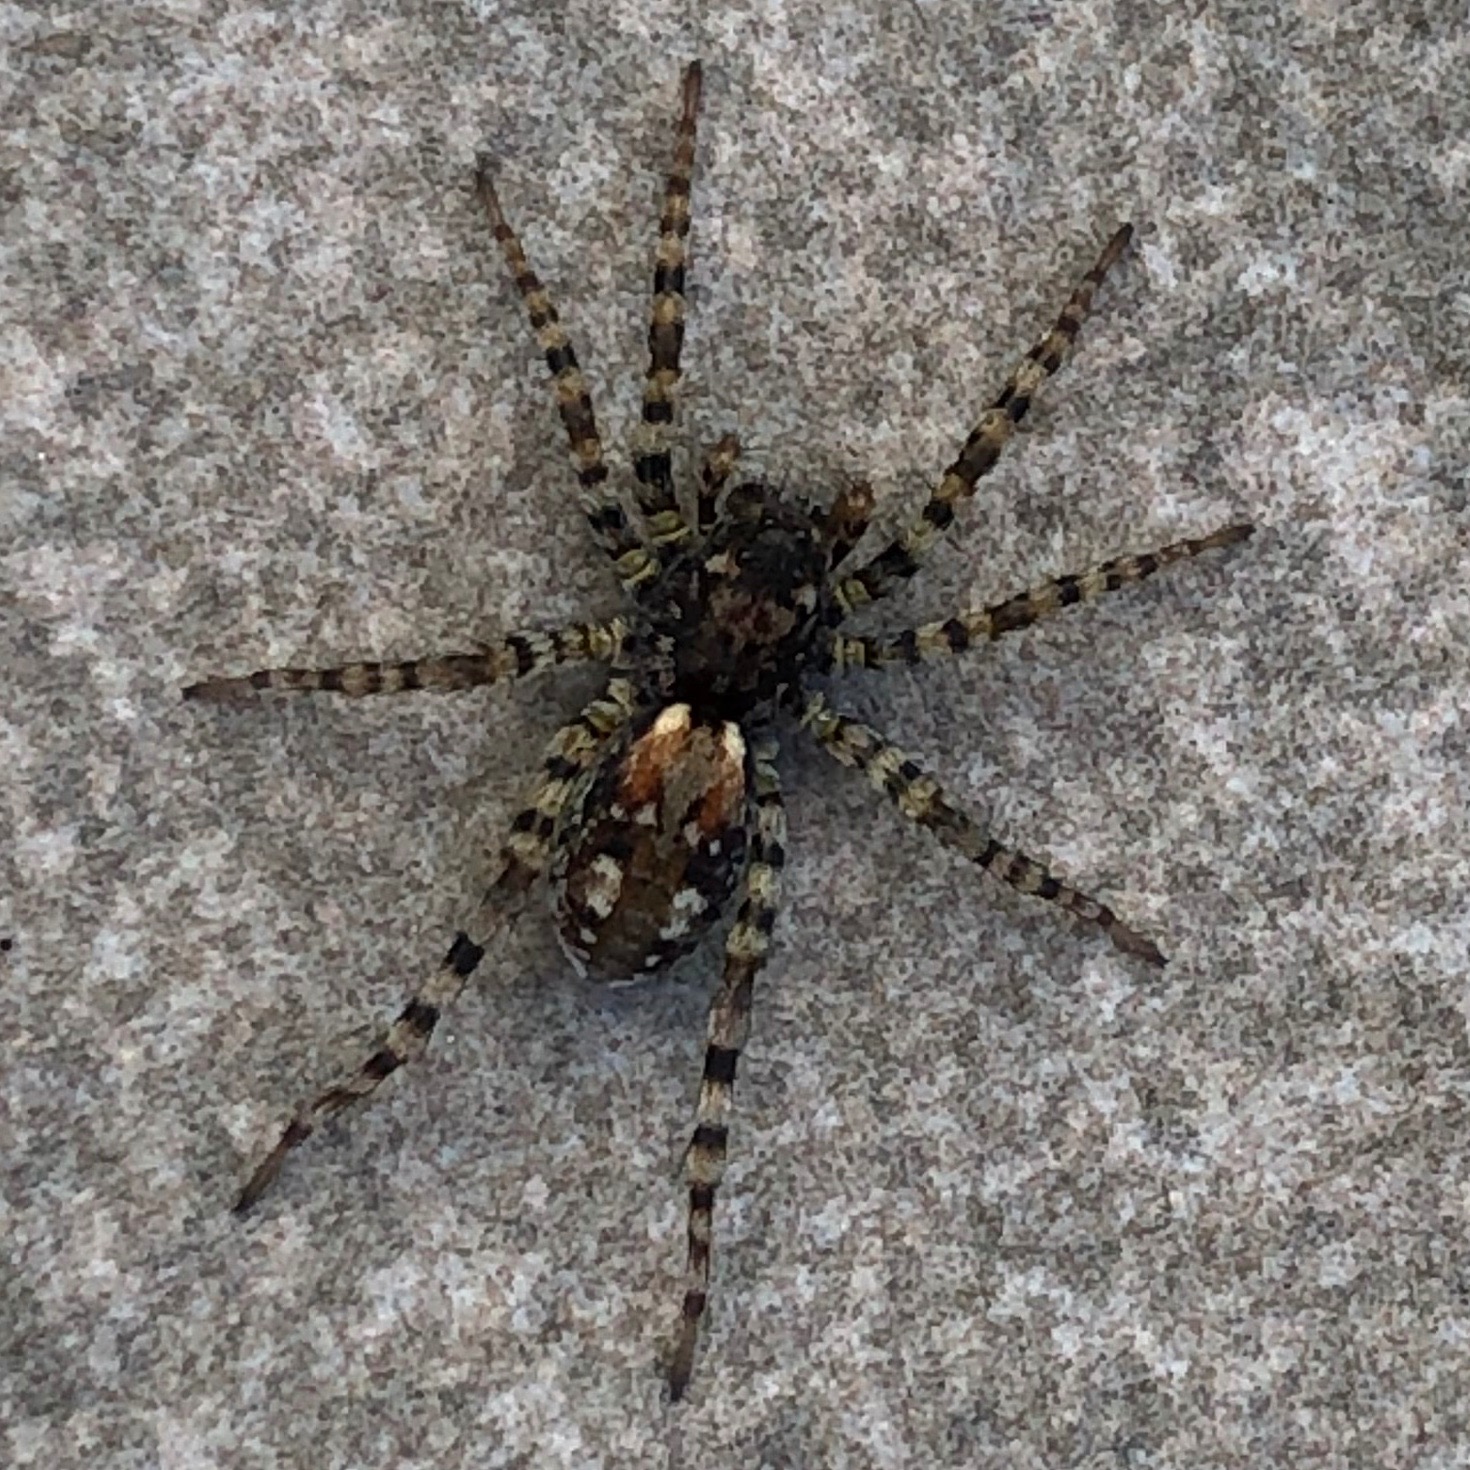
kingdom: Animalia
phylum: Arthropoda
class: Arachnida
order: Araneae
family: Lycosidae
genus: Arctosa
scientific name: Arctosa perita
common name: Klitgraveedderkop
